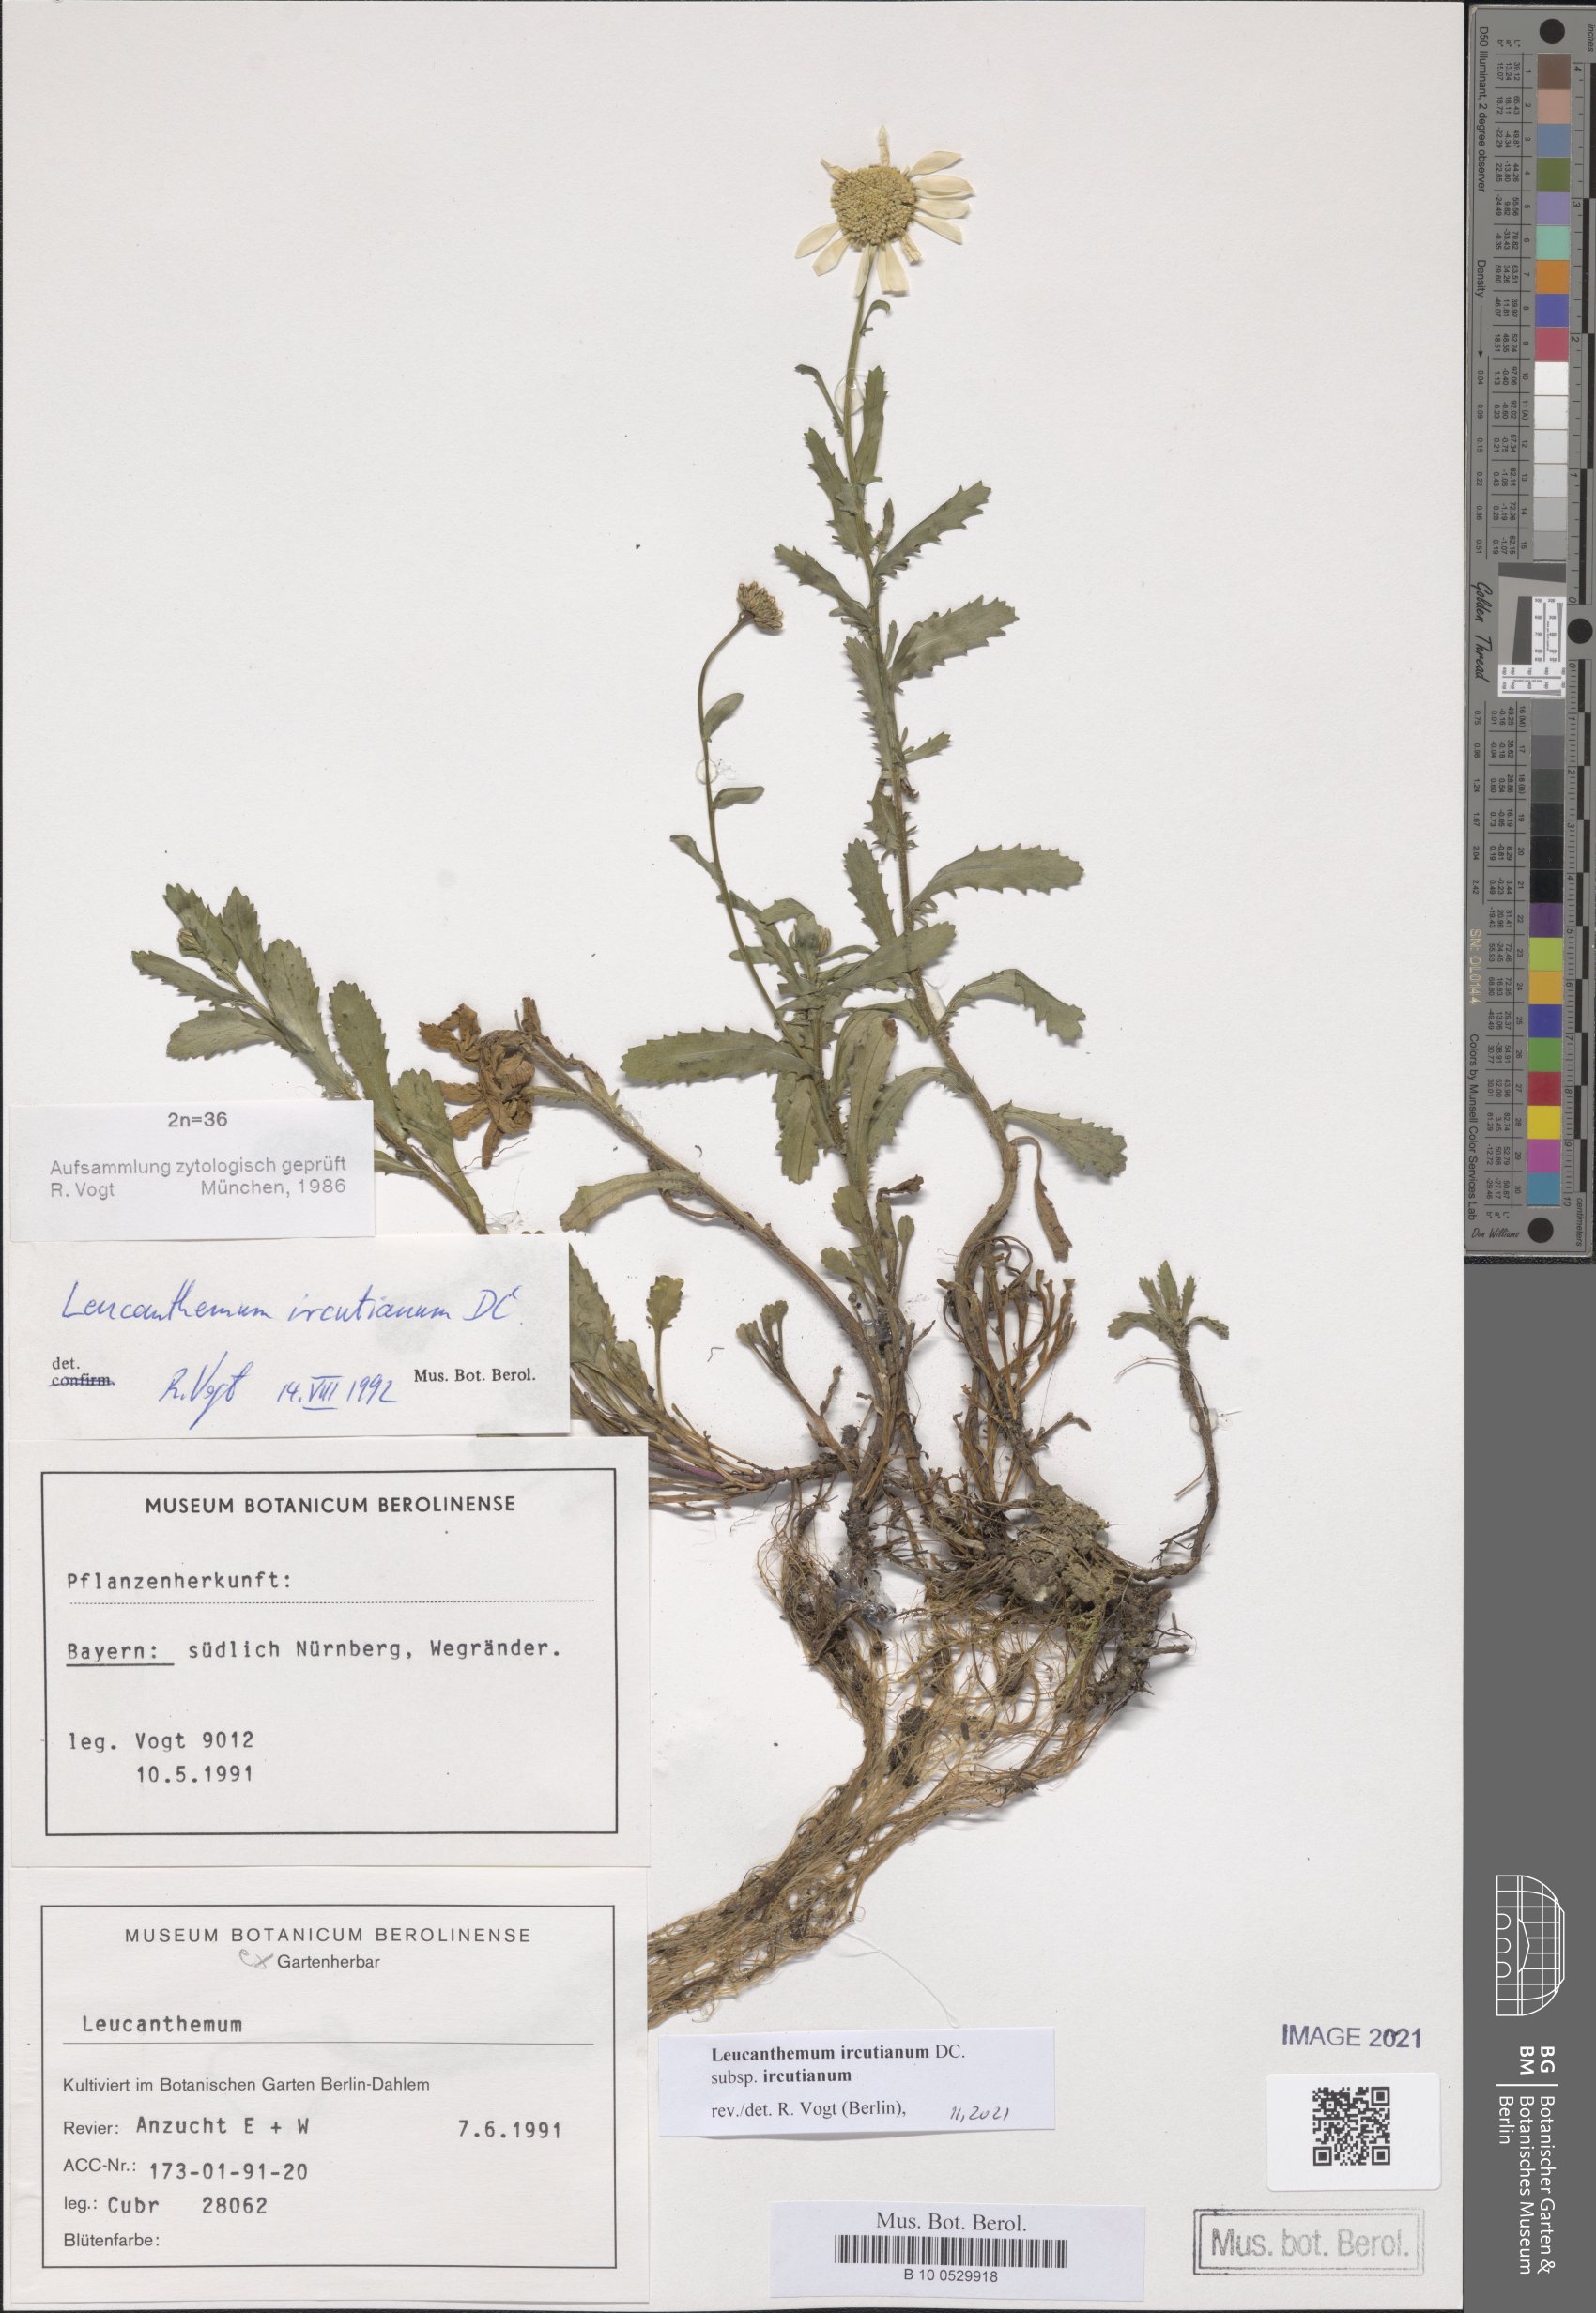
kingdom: Plantae
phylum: Tracheophyta
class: Magnoliopsida
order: Asterales
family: Asteraceae
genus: Leucanthemum
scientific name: Leucanthemum ircutianum
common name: Daisy
